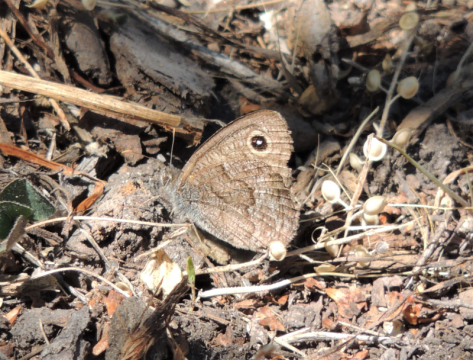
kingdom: Animalia
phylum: Arthropoda
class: Insecta
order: Lepidoptera
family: Nymphalidae
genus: Cercyonis
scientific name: Cercyonis sthenele
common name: Great Basin Wood-Nymph
